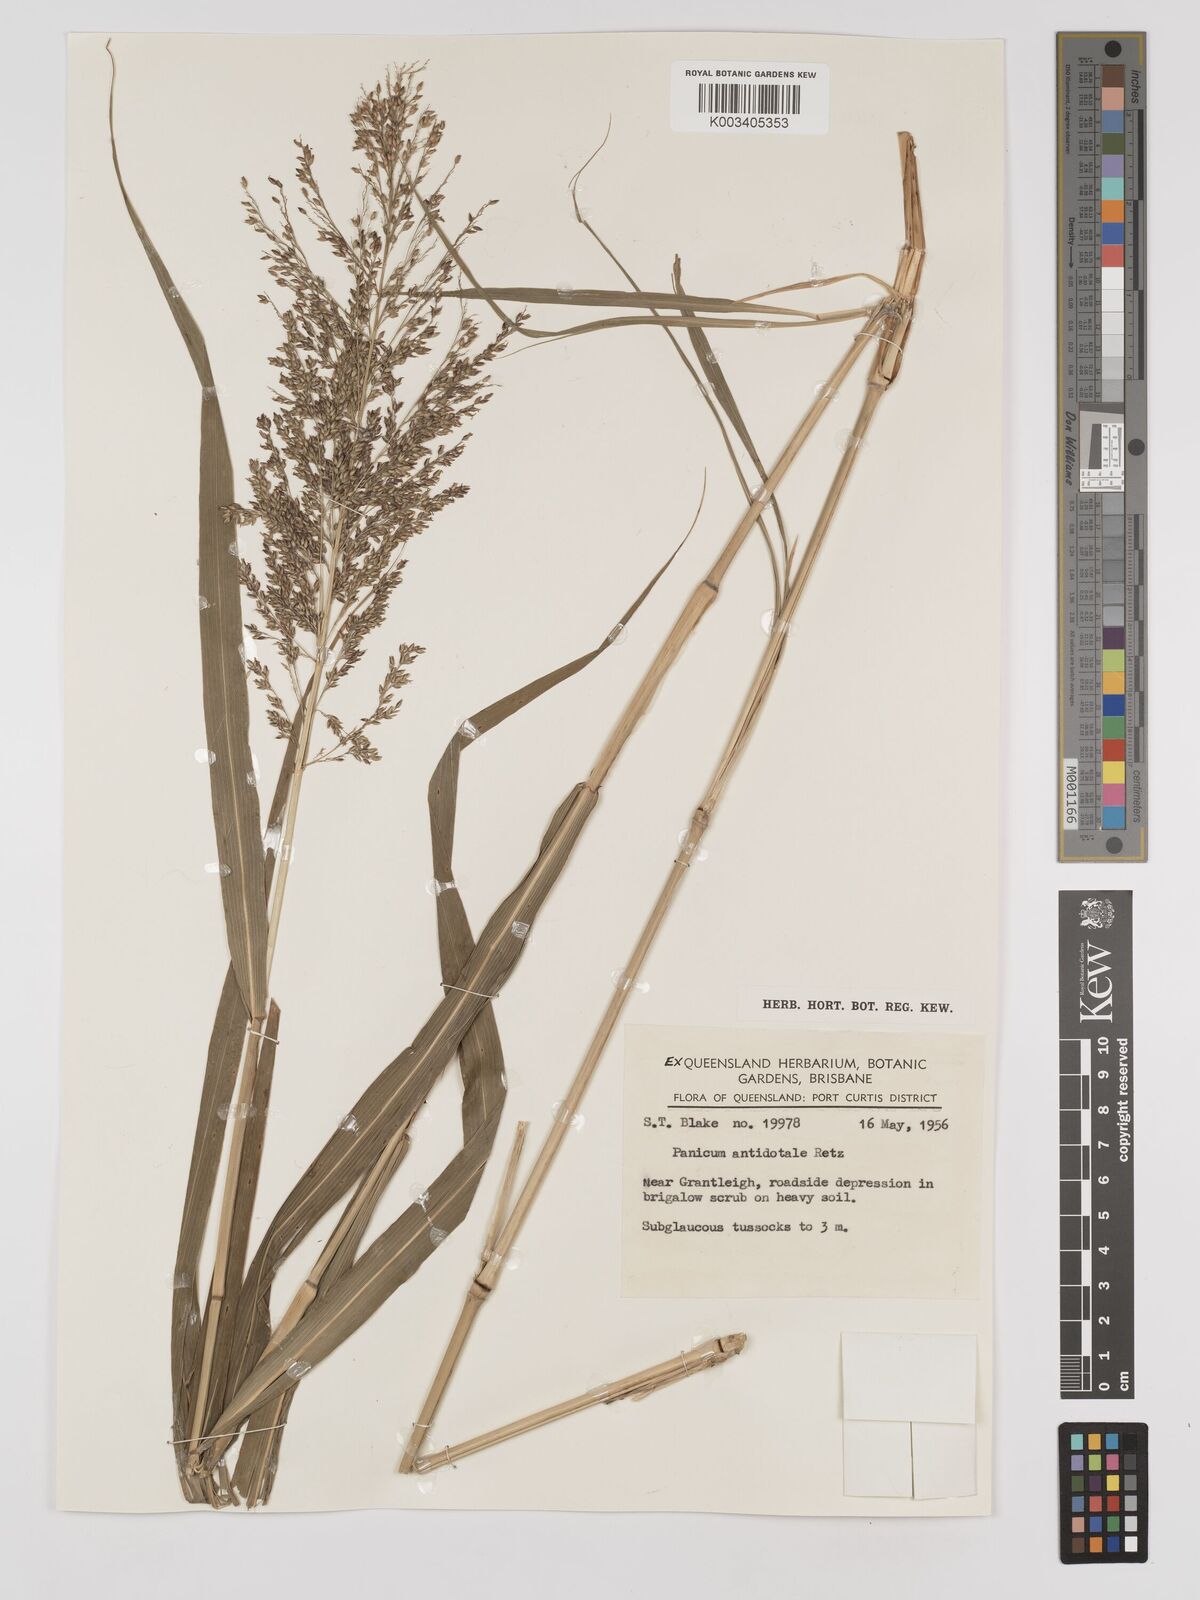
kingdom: Plantae
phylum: Tracheophyta
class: Liliopsida
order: Poales
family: Poaceae
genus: Panicum
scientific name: Panicum antidotale
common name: Blue panicum
